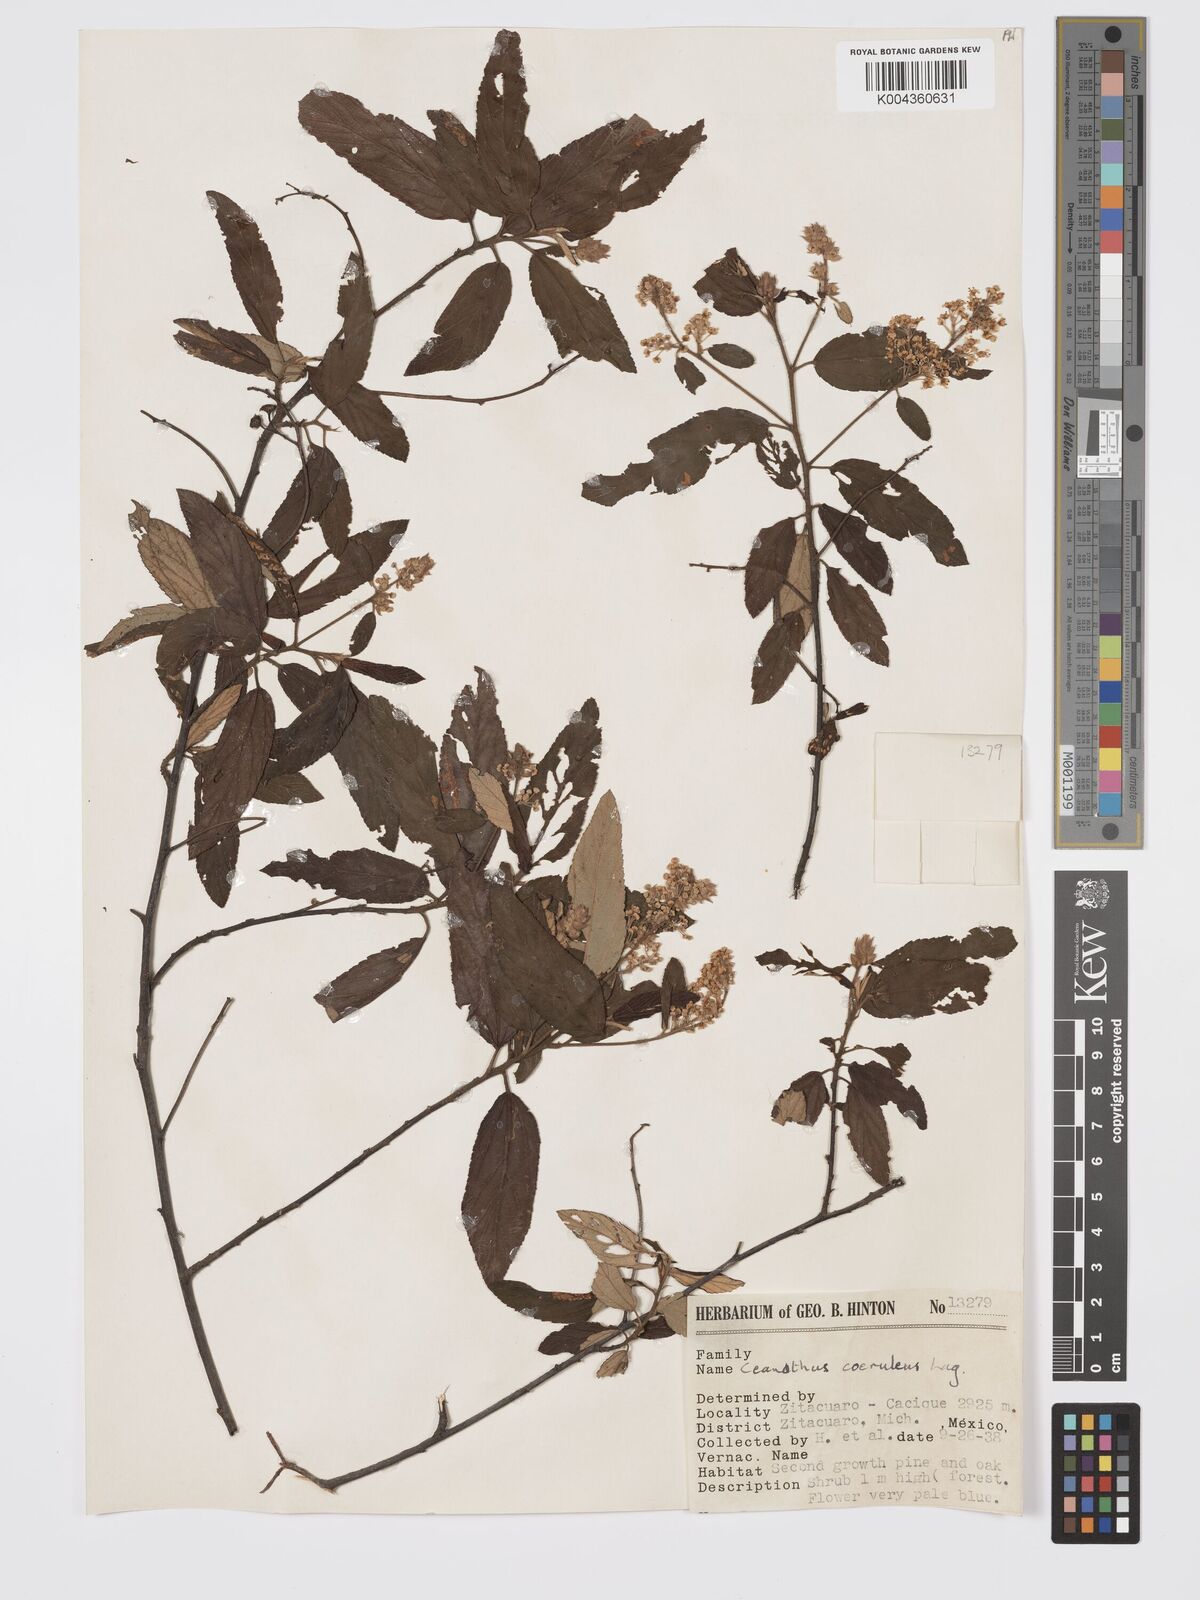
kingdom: Plantae
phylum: Tracheophyta
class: Magnoliopsida
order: Rosales
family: Rhamnaceae
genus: Ceanothus
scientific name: Ceanothus caeruleus
